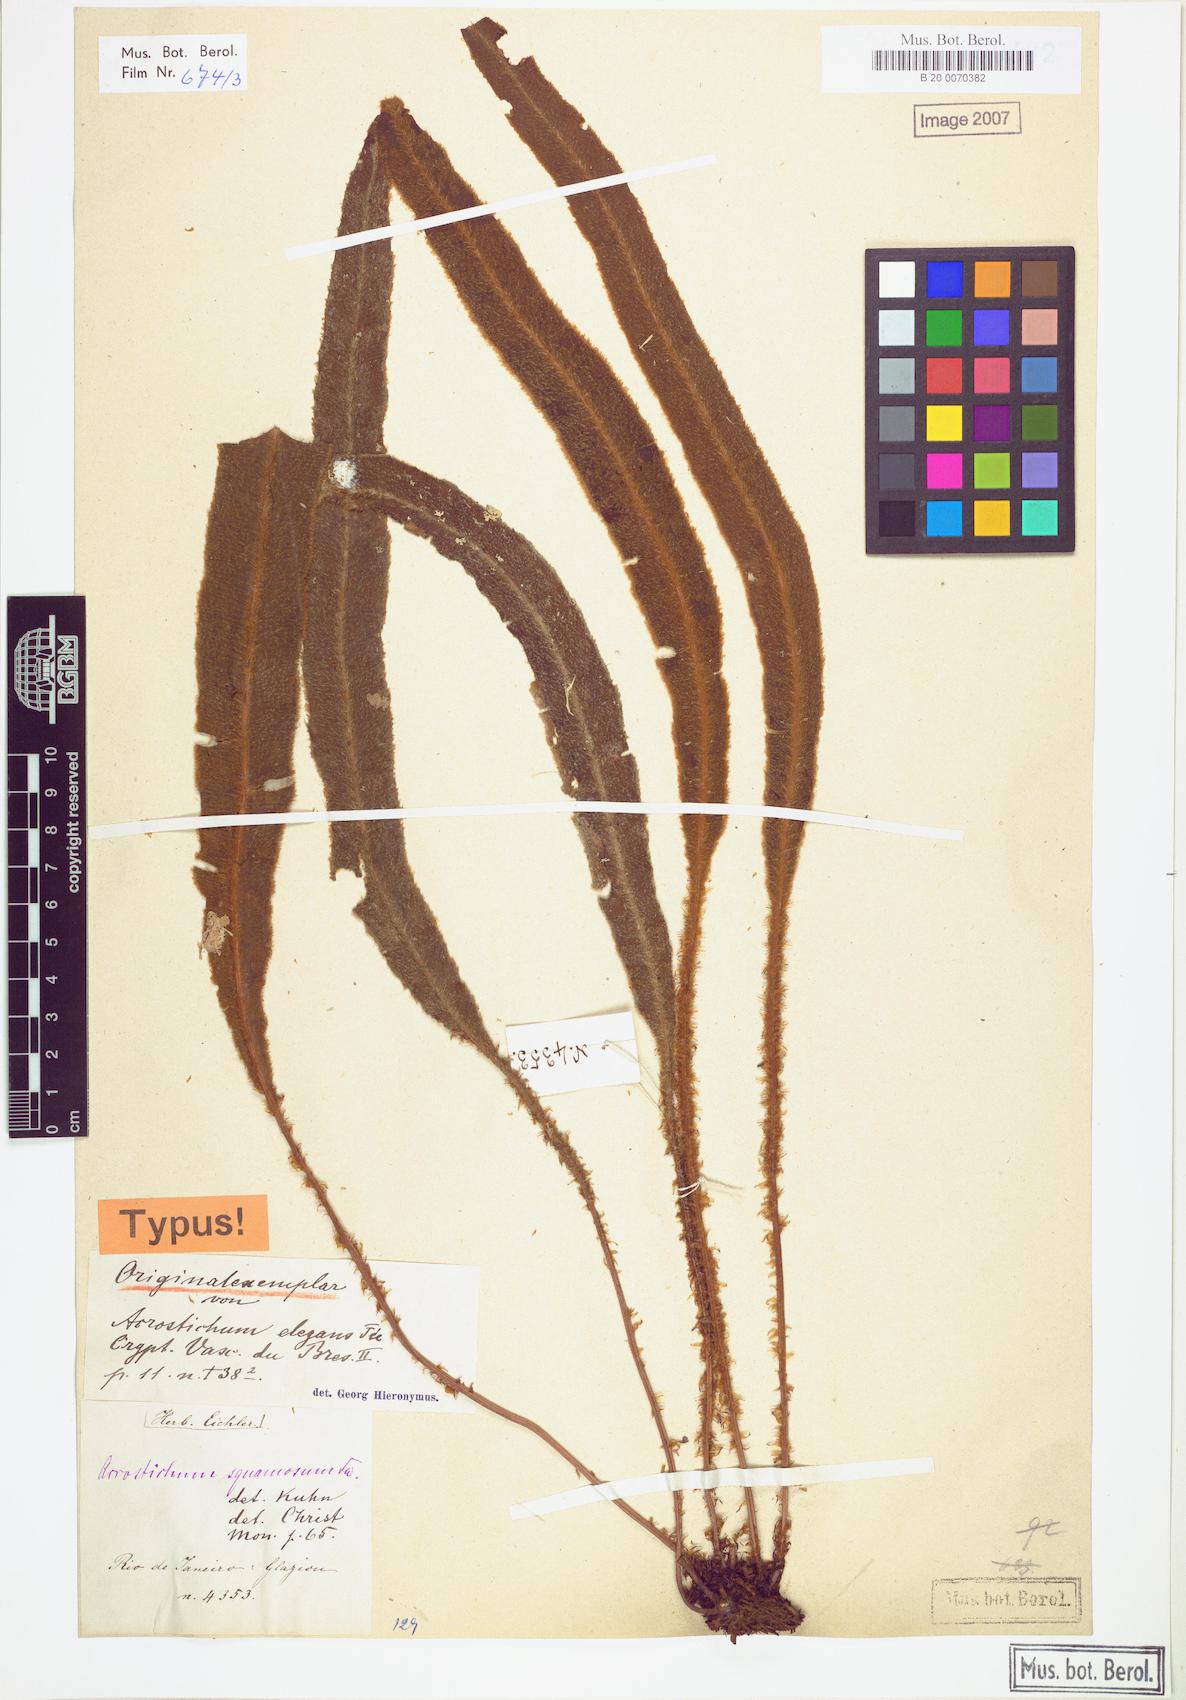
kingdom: Plantae
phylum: Tracheophyta
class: Polypodiopsida
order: Polypodiales
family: Dryopteridaceae
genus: Elaphoglossum
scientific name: Elaphoglossum plumosum
